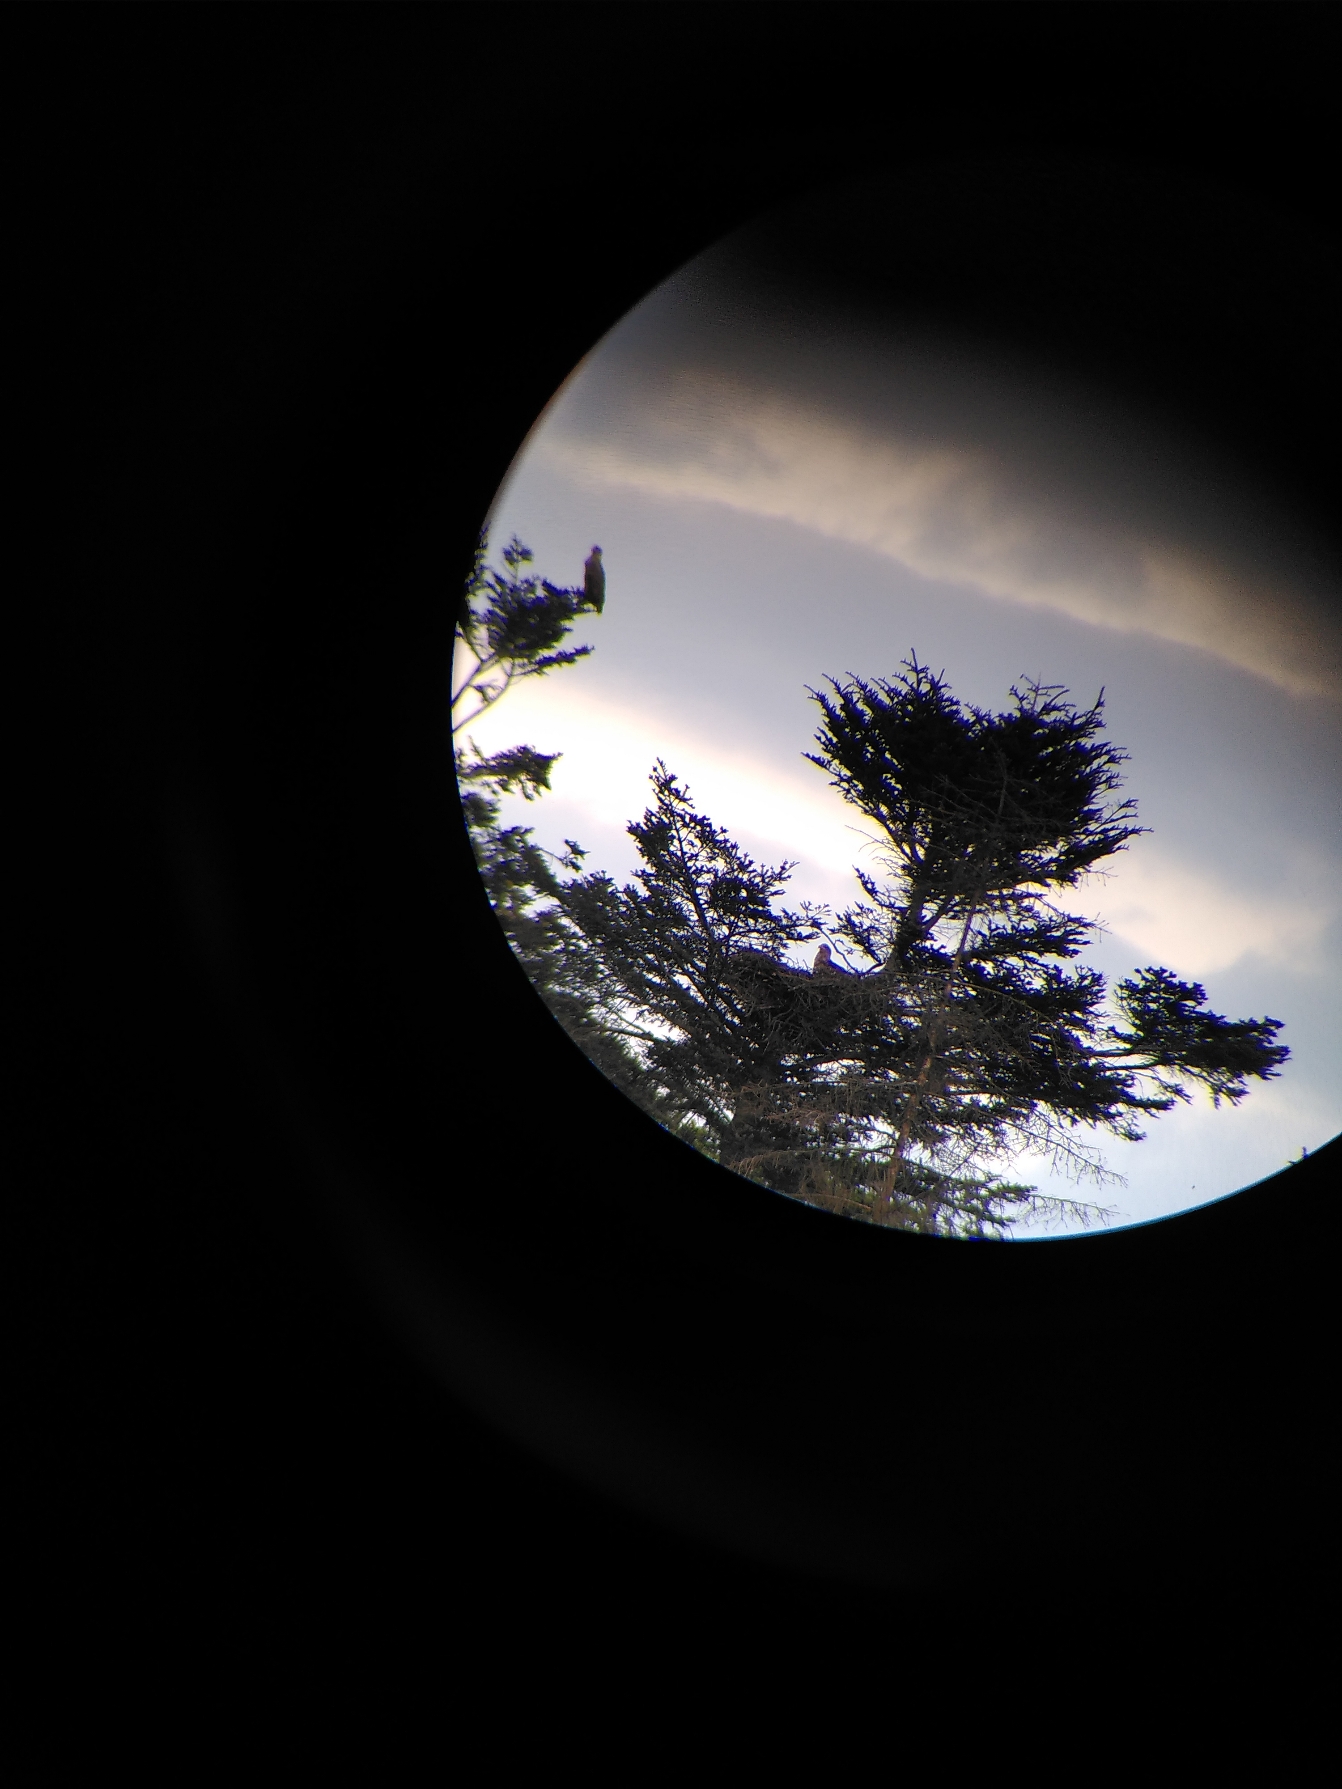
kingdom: Animalia
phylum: Chordata
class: Aves
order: Accipitriformes
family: Accipitridae
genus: Haliaeetus
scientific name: Haliaeetus albicilla
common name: Havørn
